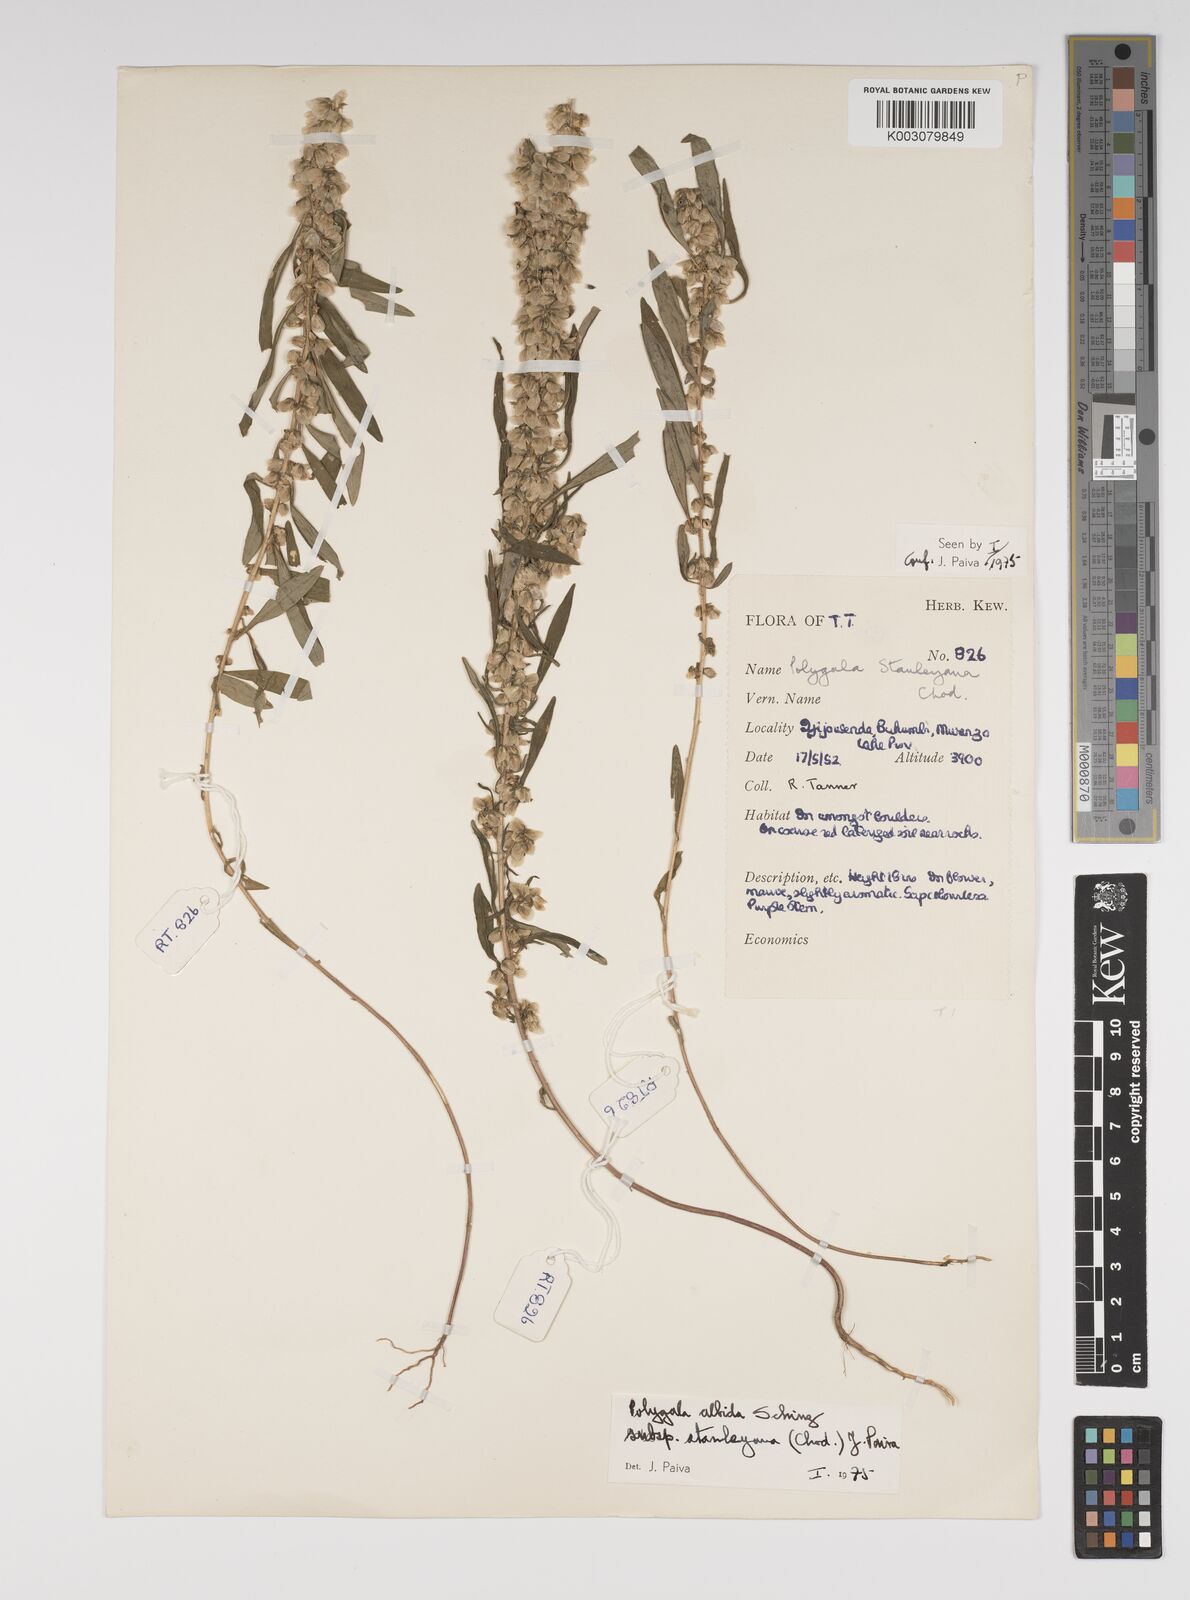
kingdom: Plantae
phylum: Tracheophyta
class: Magnoliopsida
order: Fabales
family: Polygalaceae
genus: Polygala
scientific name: Polygala albida
